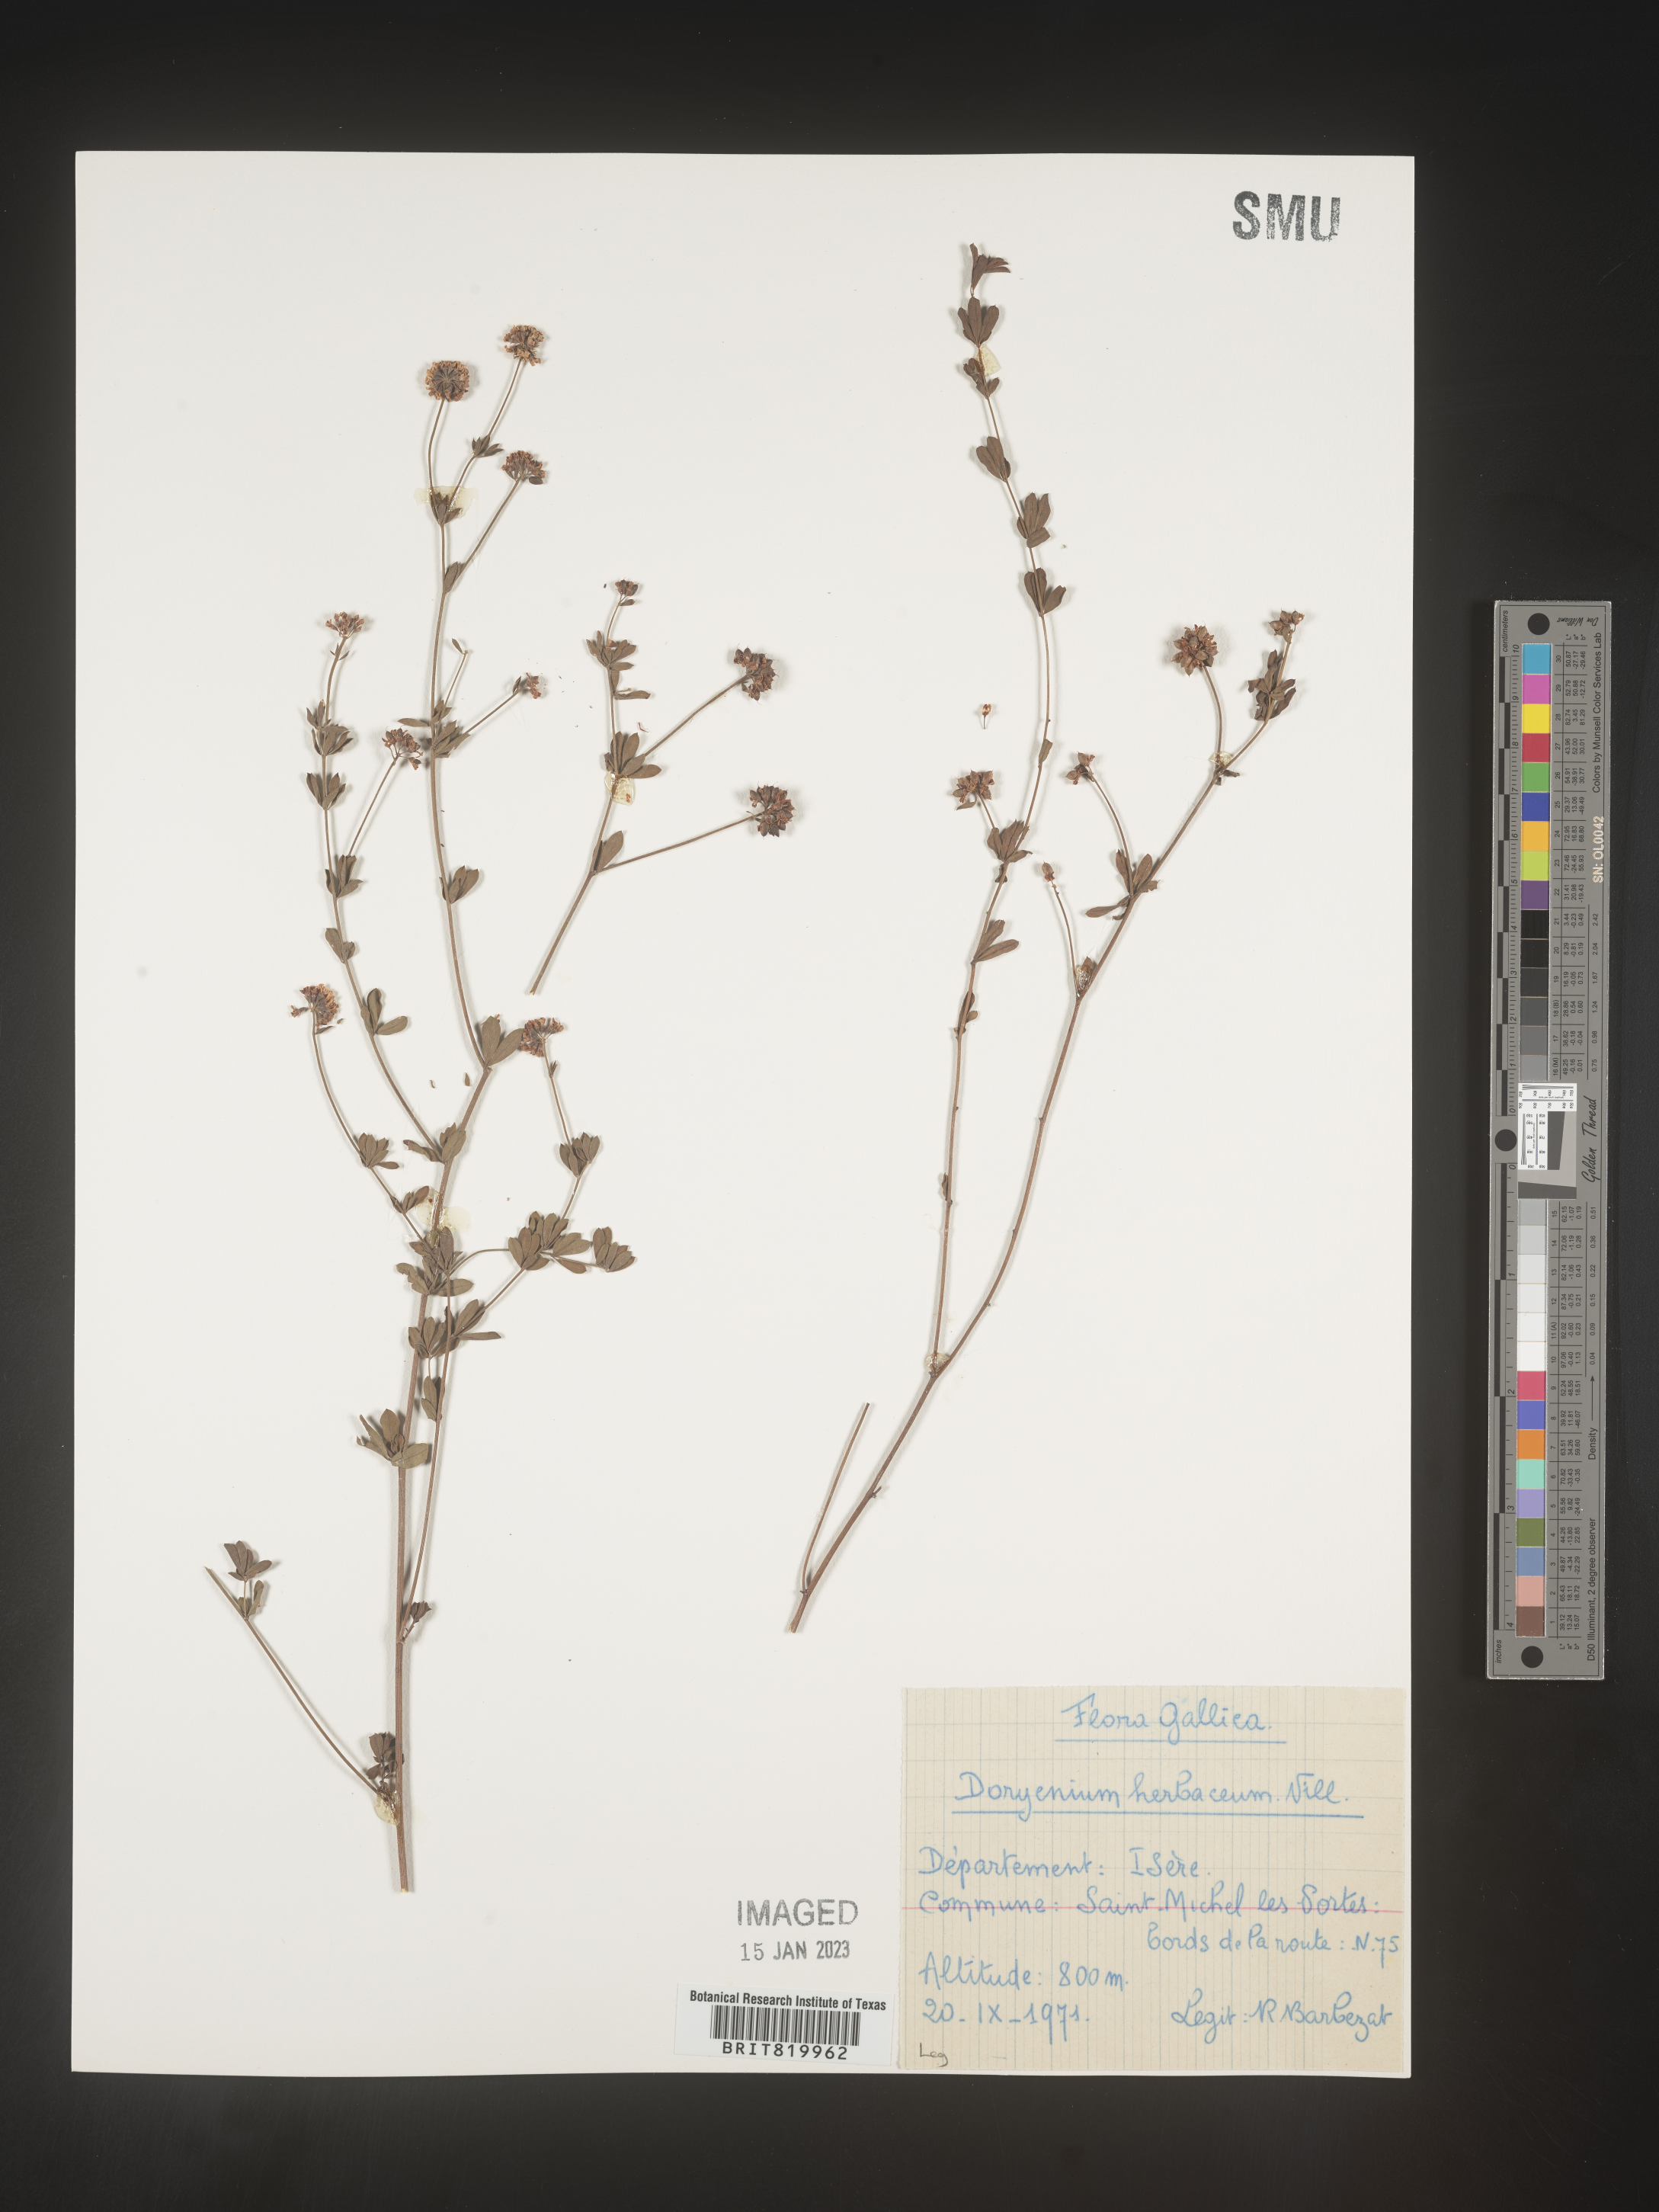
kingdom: Plantae
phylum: Tracheophyta
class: Magnoliopsida
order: Fabales
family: Fabaceae
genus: Lotus
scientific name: Lotus
